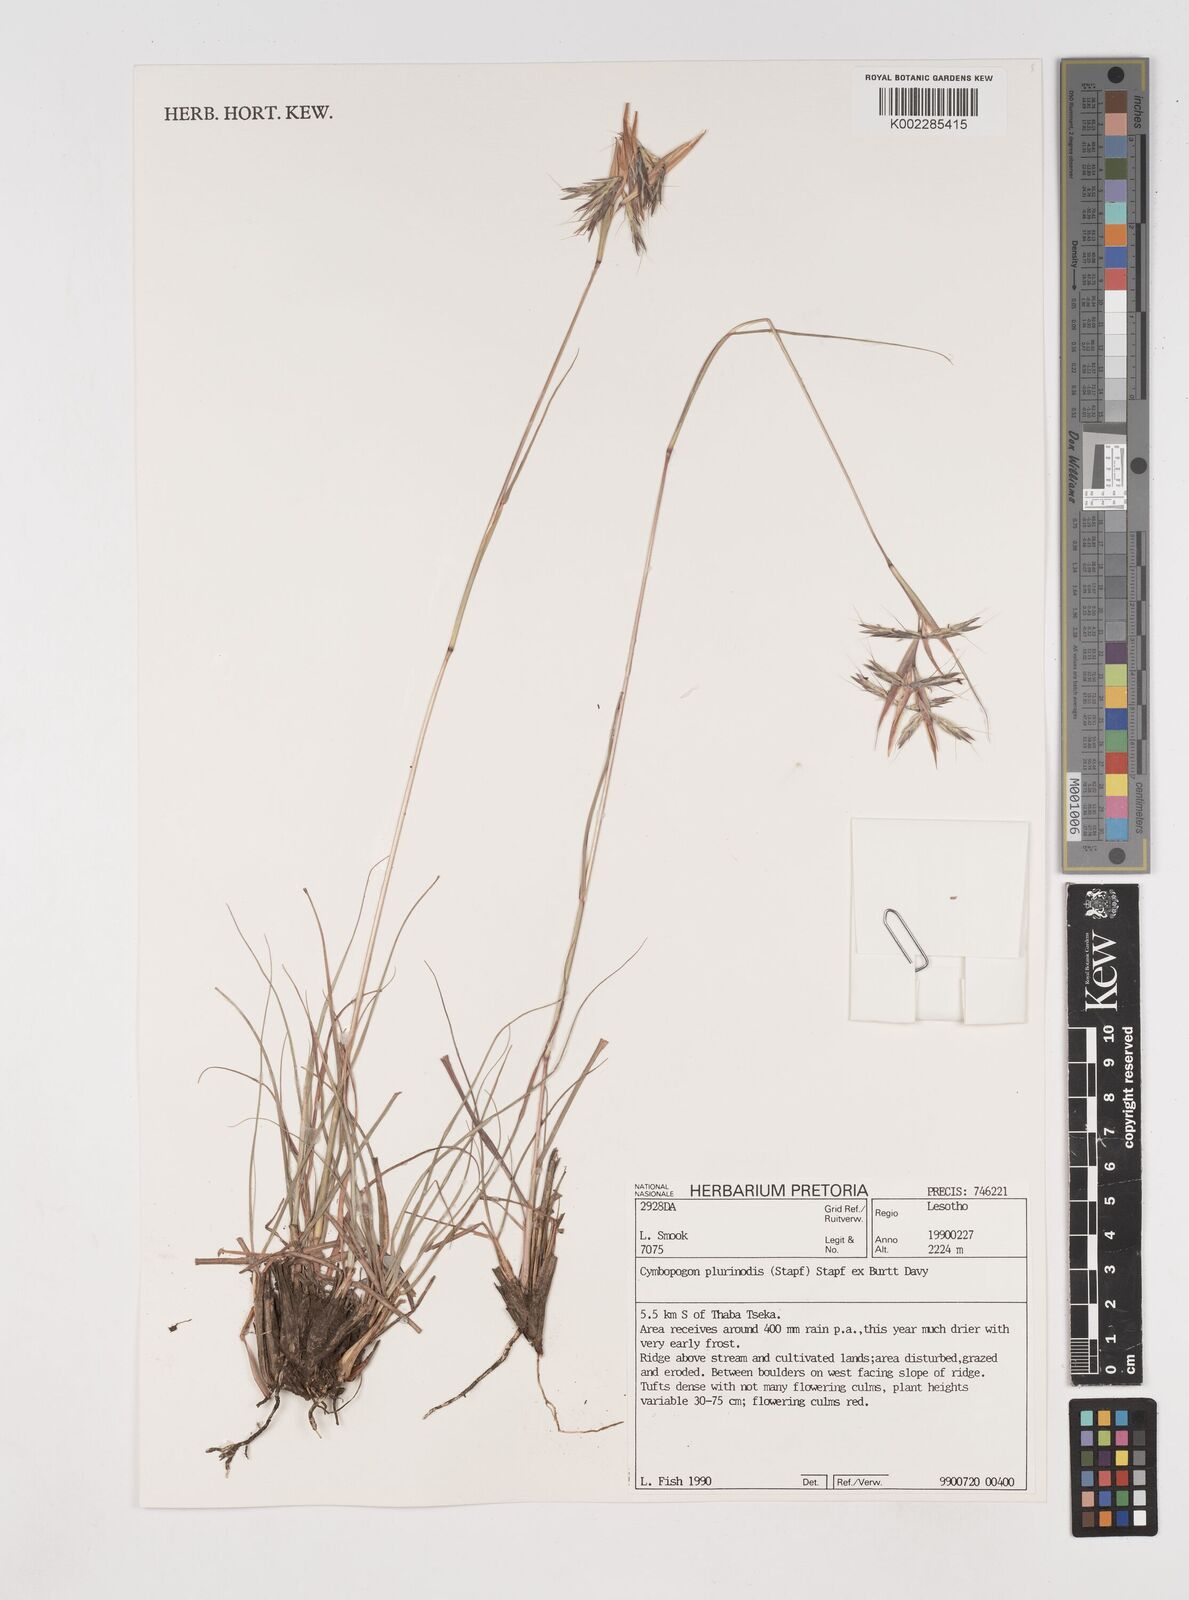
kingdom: Plantae
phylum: Tracheophyta
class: Liliopsida
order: Poales
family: Poaceae
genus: Cymbopogon
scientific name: Cymbopogon
